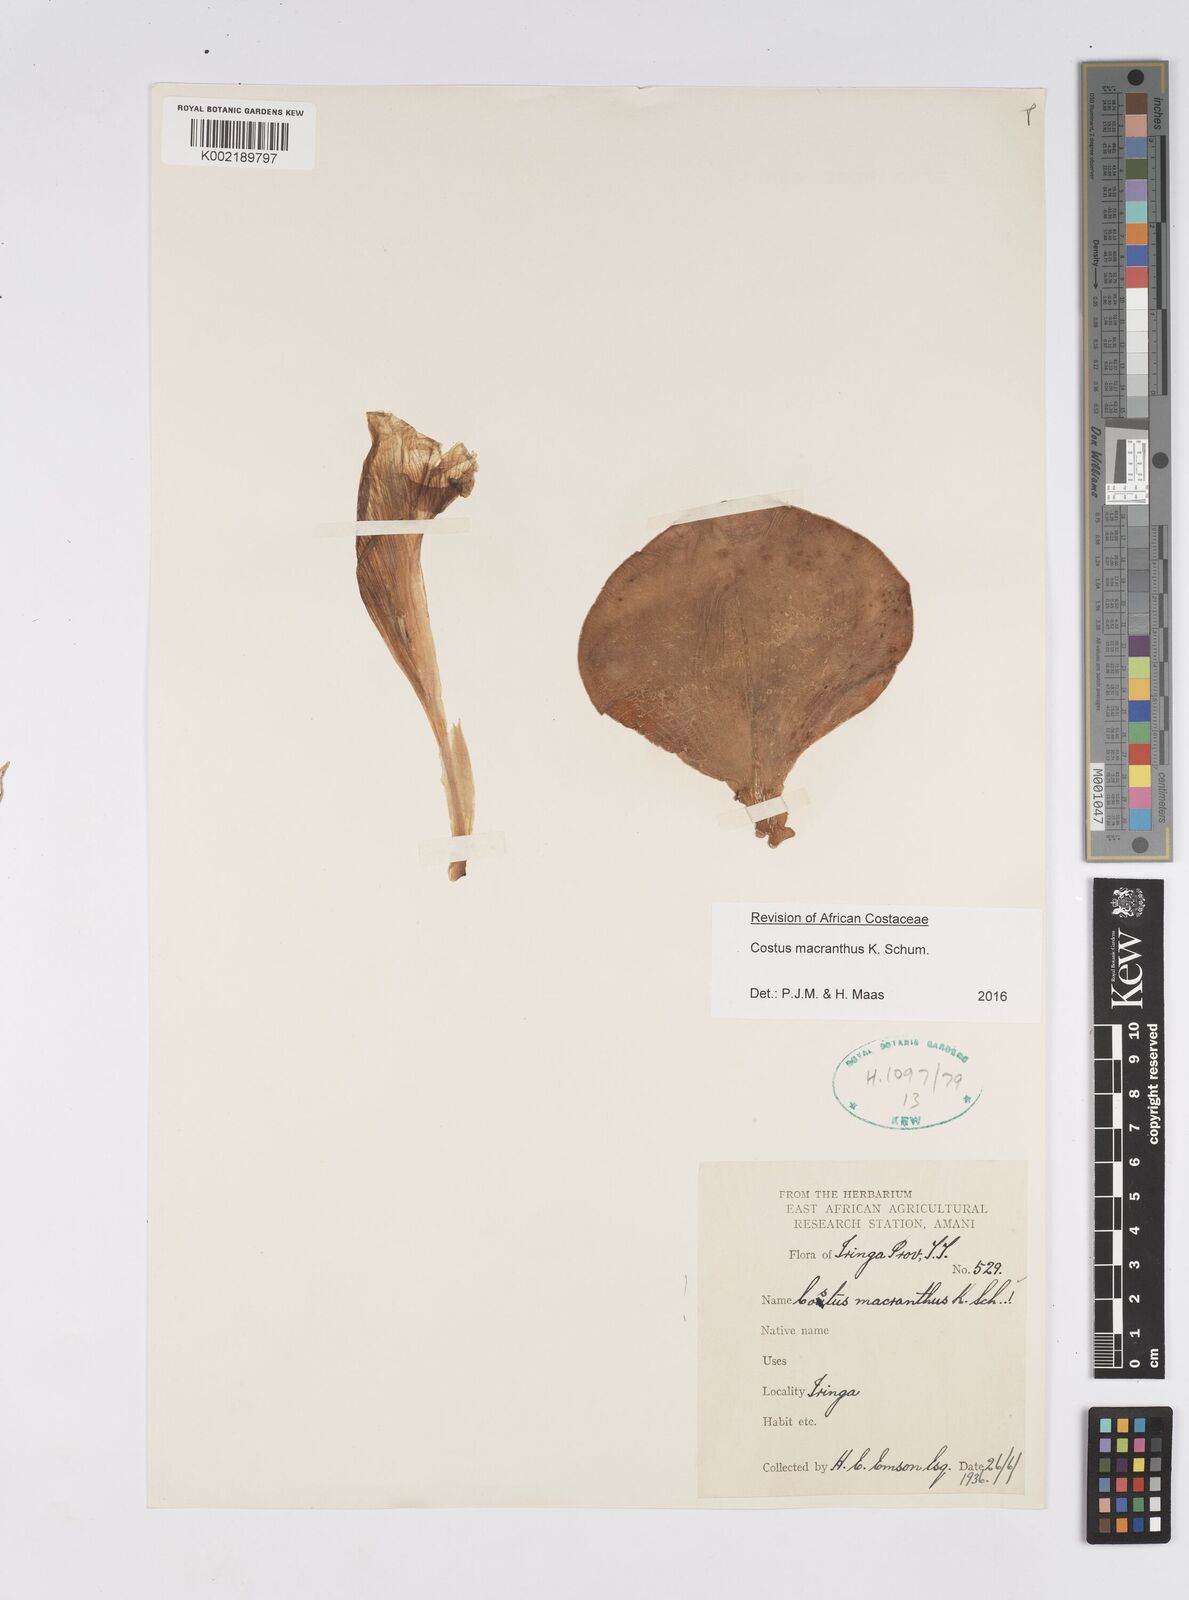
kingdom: Plantae
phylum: Tracheophyta
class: Liliopsida
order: Zingiberales
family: Costaceae
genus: Costus
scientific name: Costus macranthus
